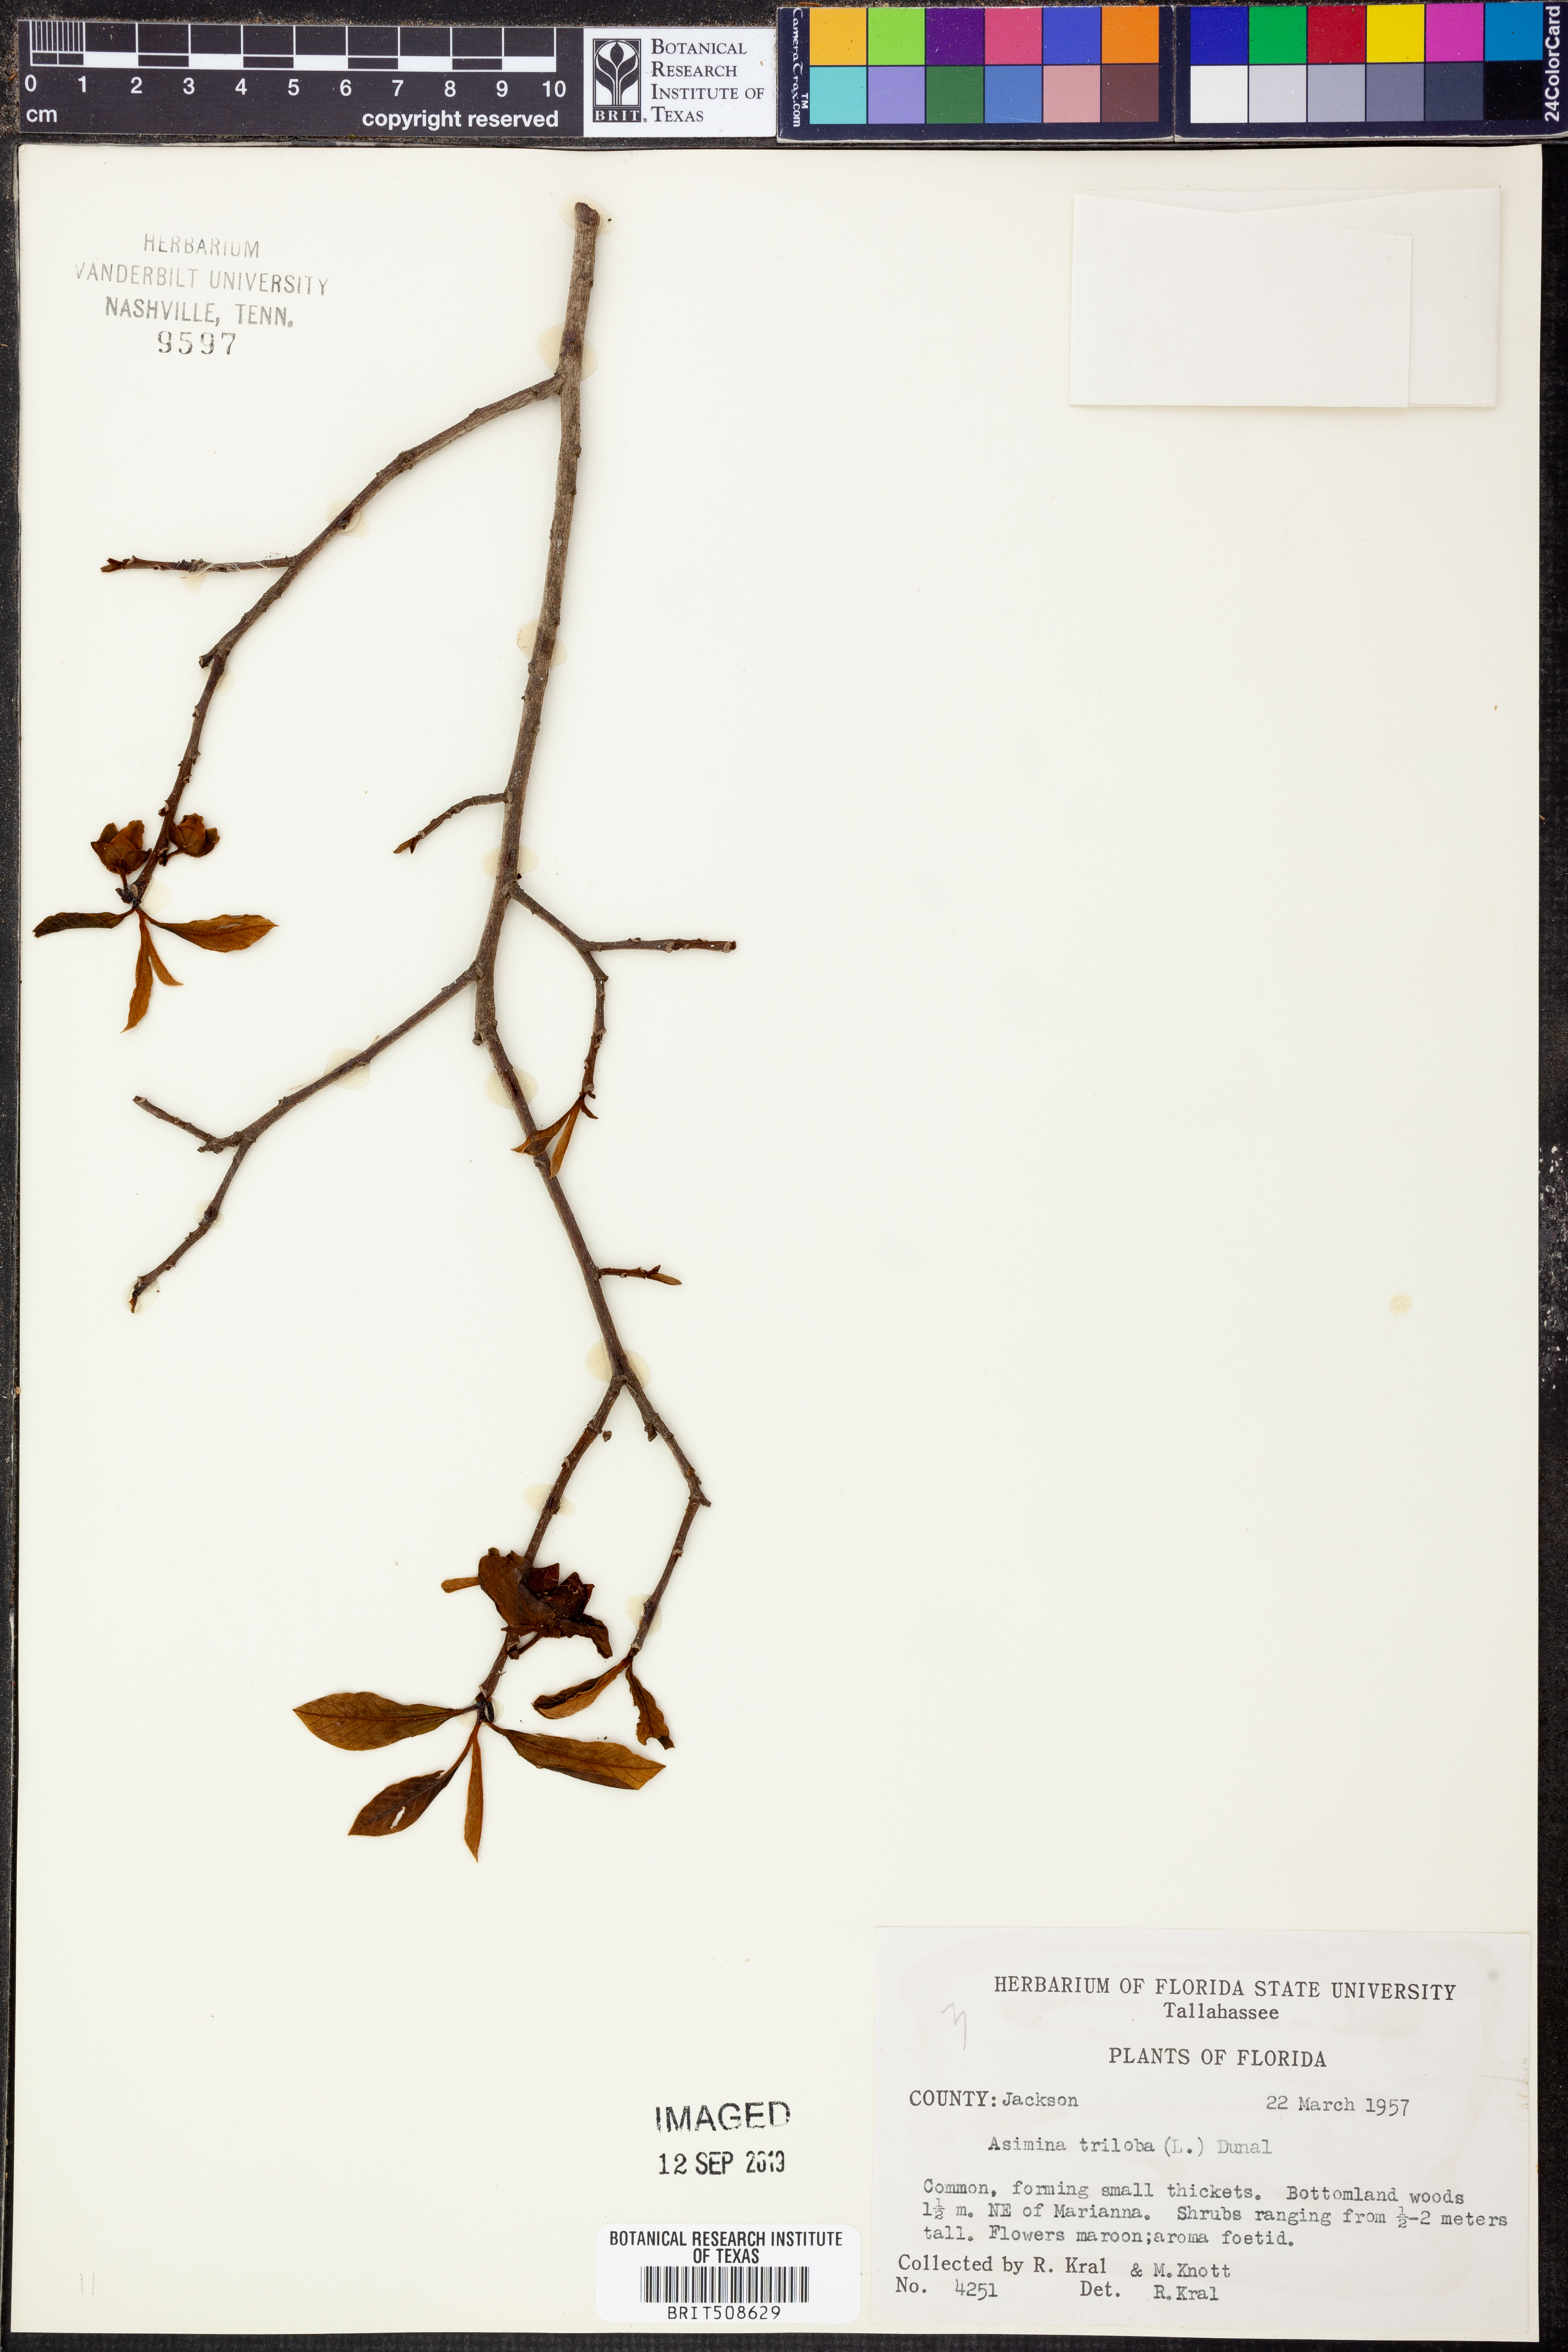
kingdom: Plantae
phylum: Tracheophyta
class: Magnoliopsida
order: Magnoliales
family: Annonaceae
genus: Asimina
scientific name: Asimina triloba
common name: Dog-banana
